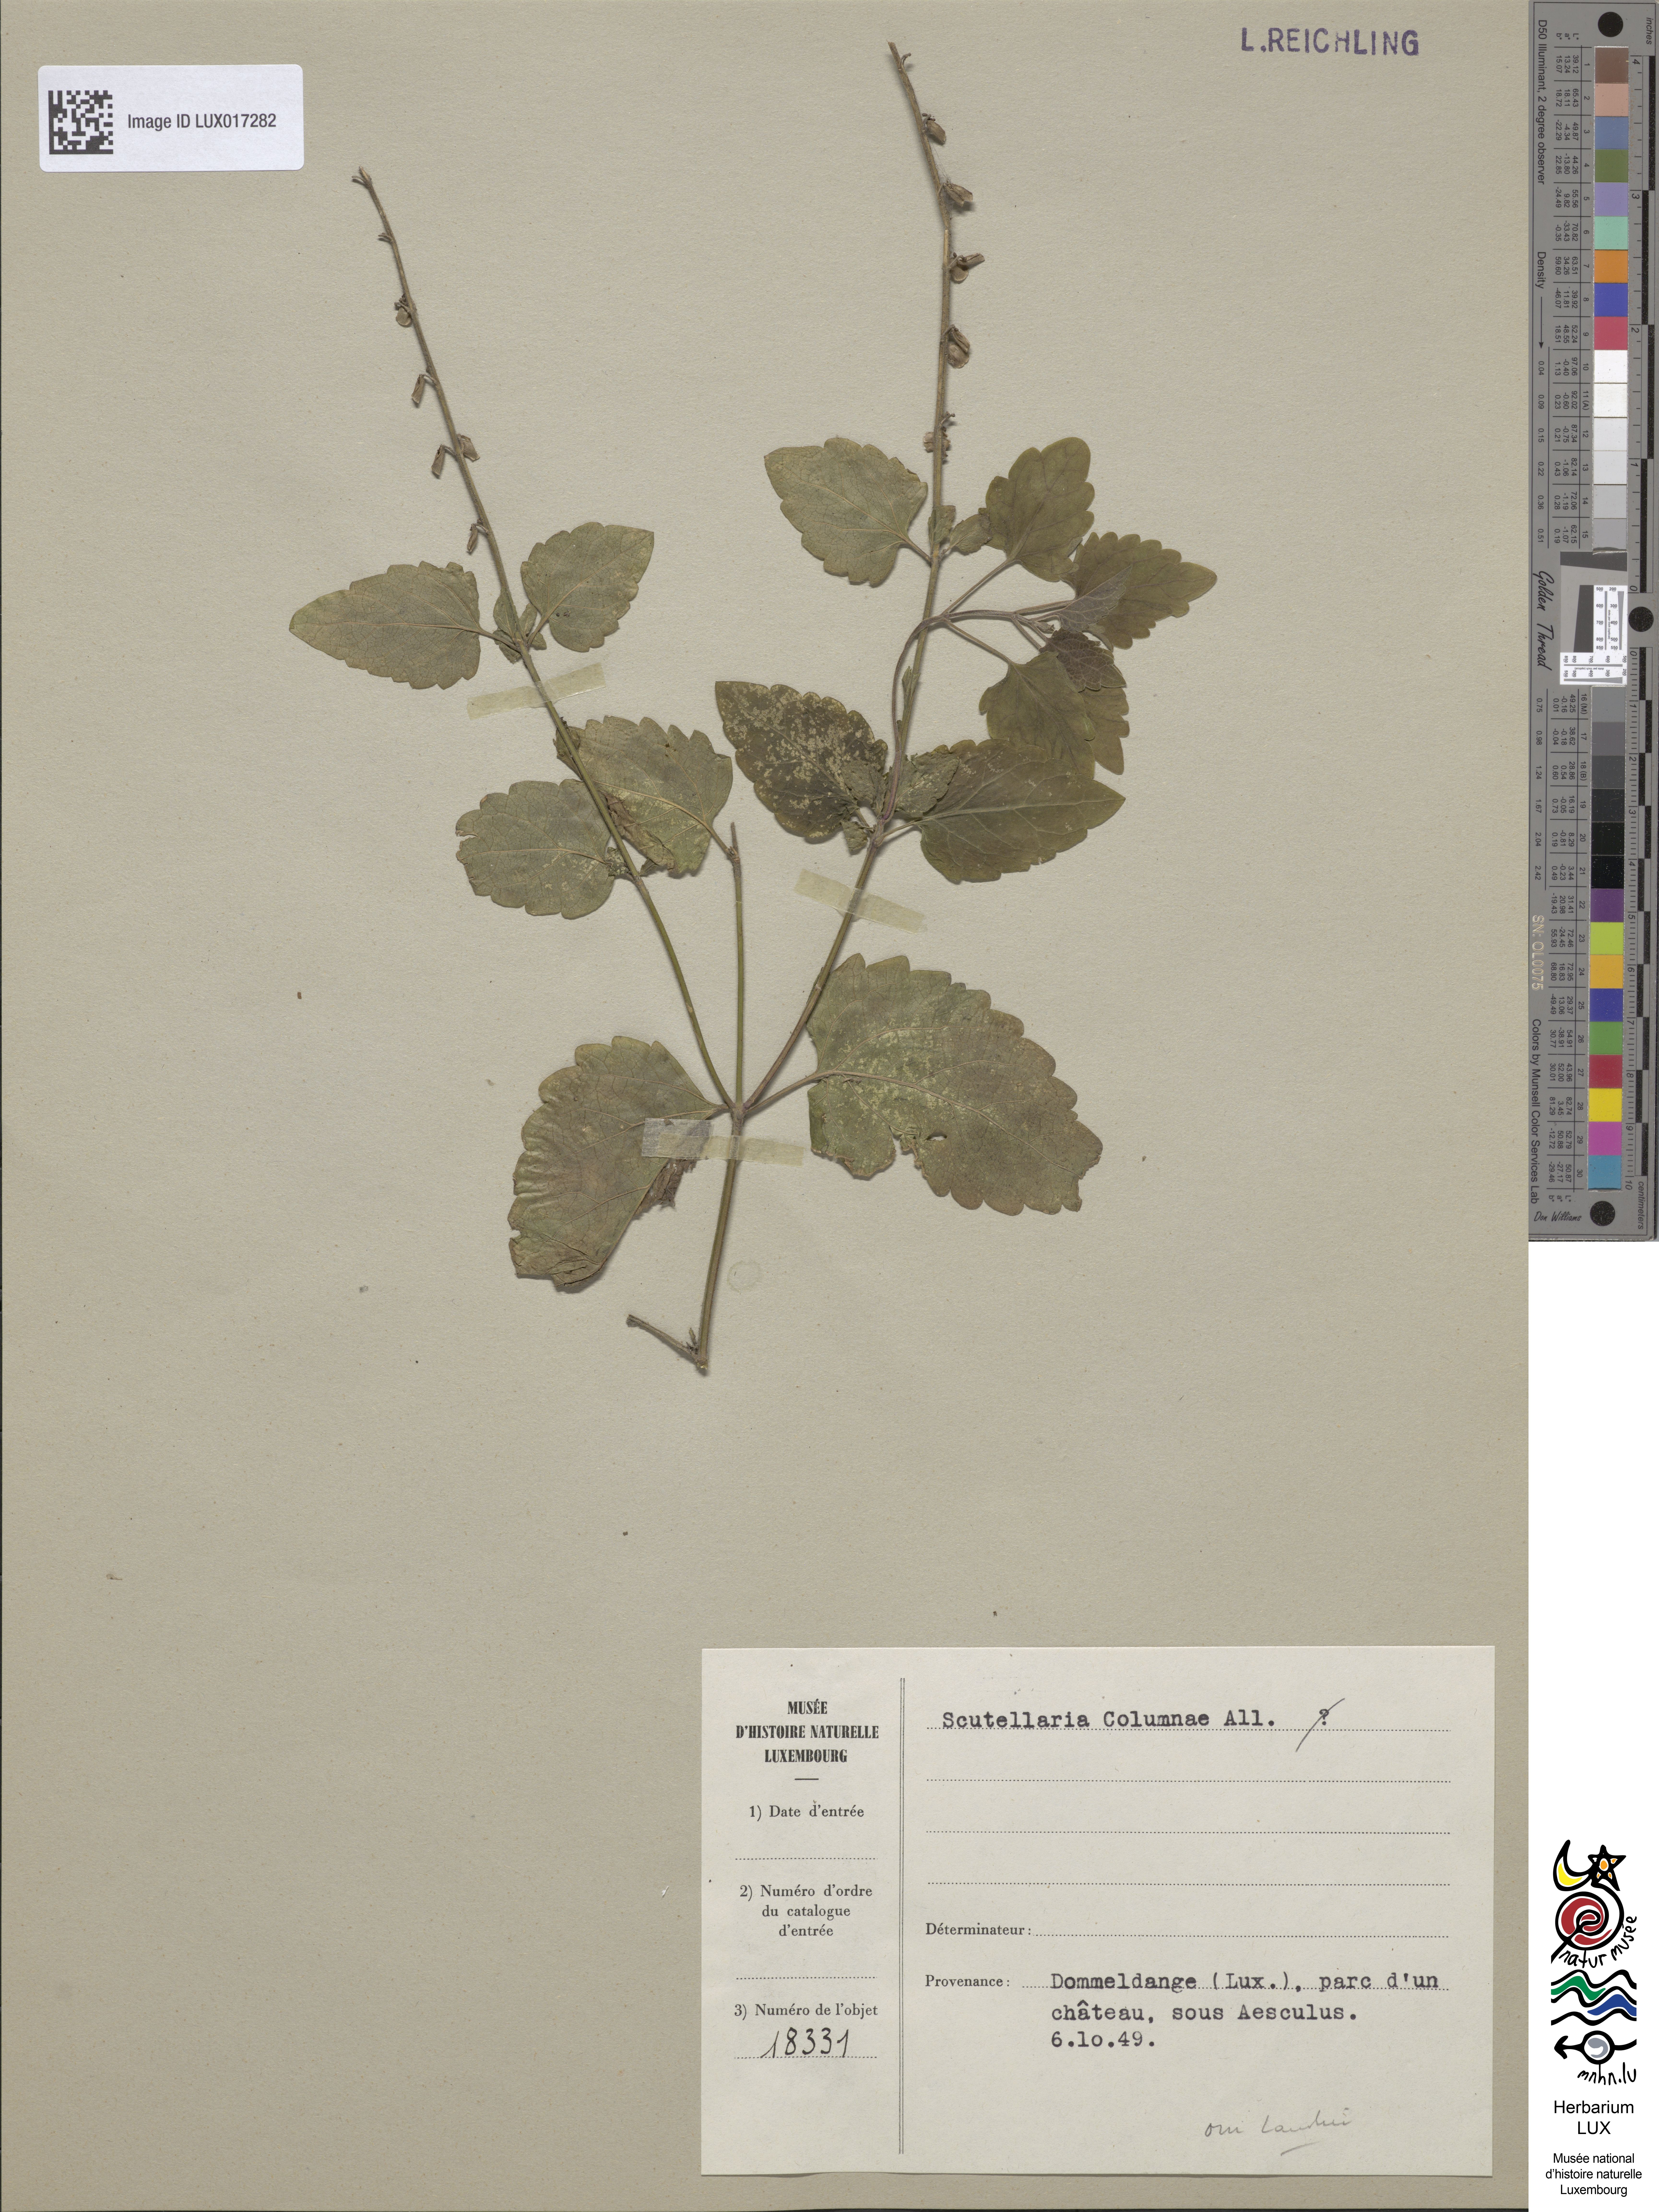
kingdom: Plantae
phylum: Tracheophyta
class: Magnoliopsida
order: Lamiales
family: Lamiaceae
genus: Scutellaria
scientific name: Scutellaria columnae
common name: Large skullcap
